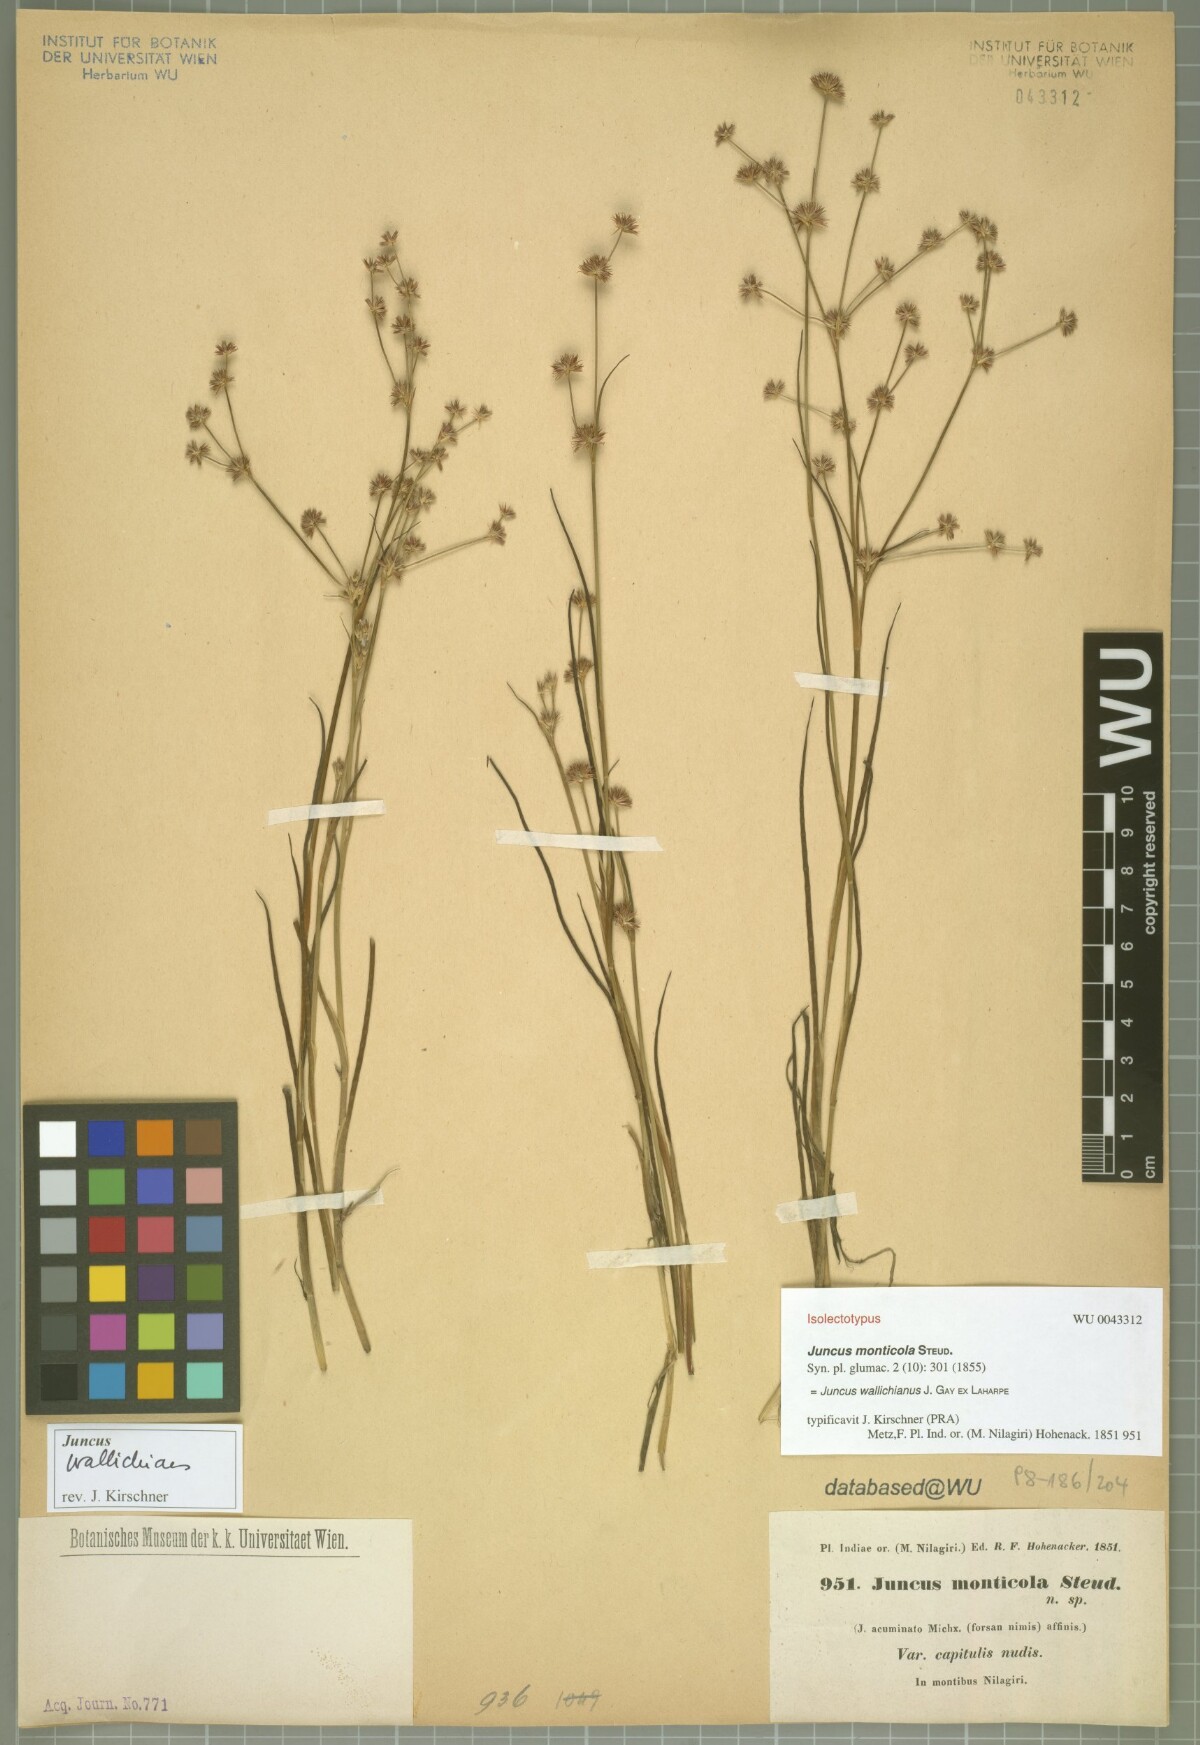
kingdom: Plantae
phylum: Tracheophyta
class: Liliopsida
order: Poales
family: Juncaceae
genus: Juncus
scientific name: Juncus wallichianus
